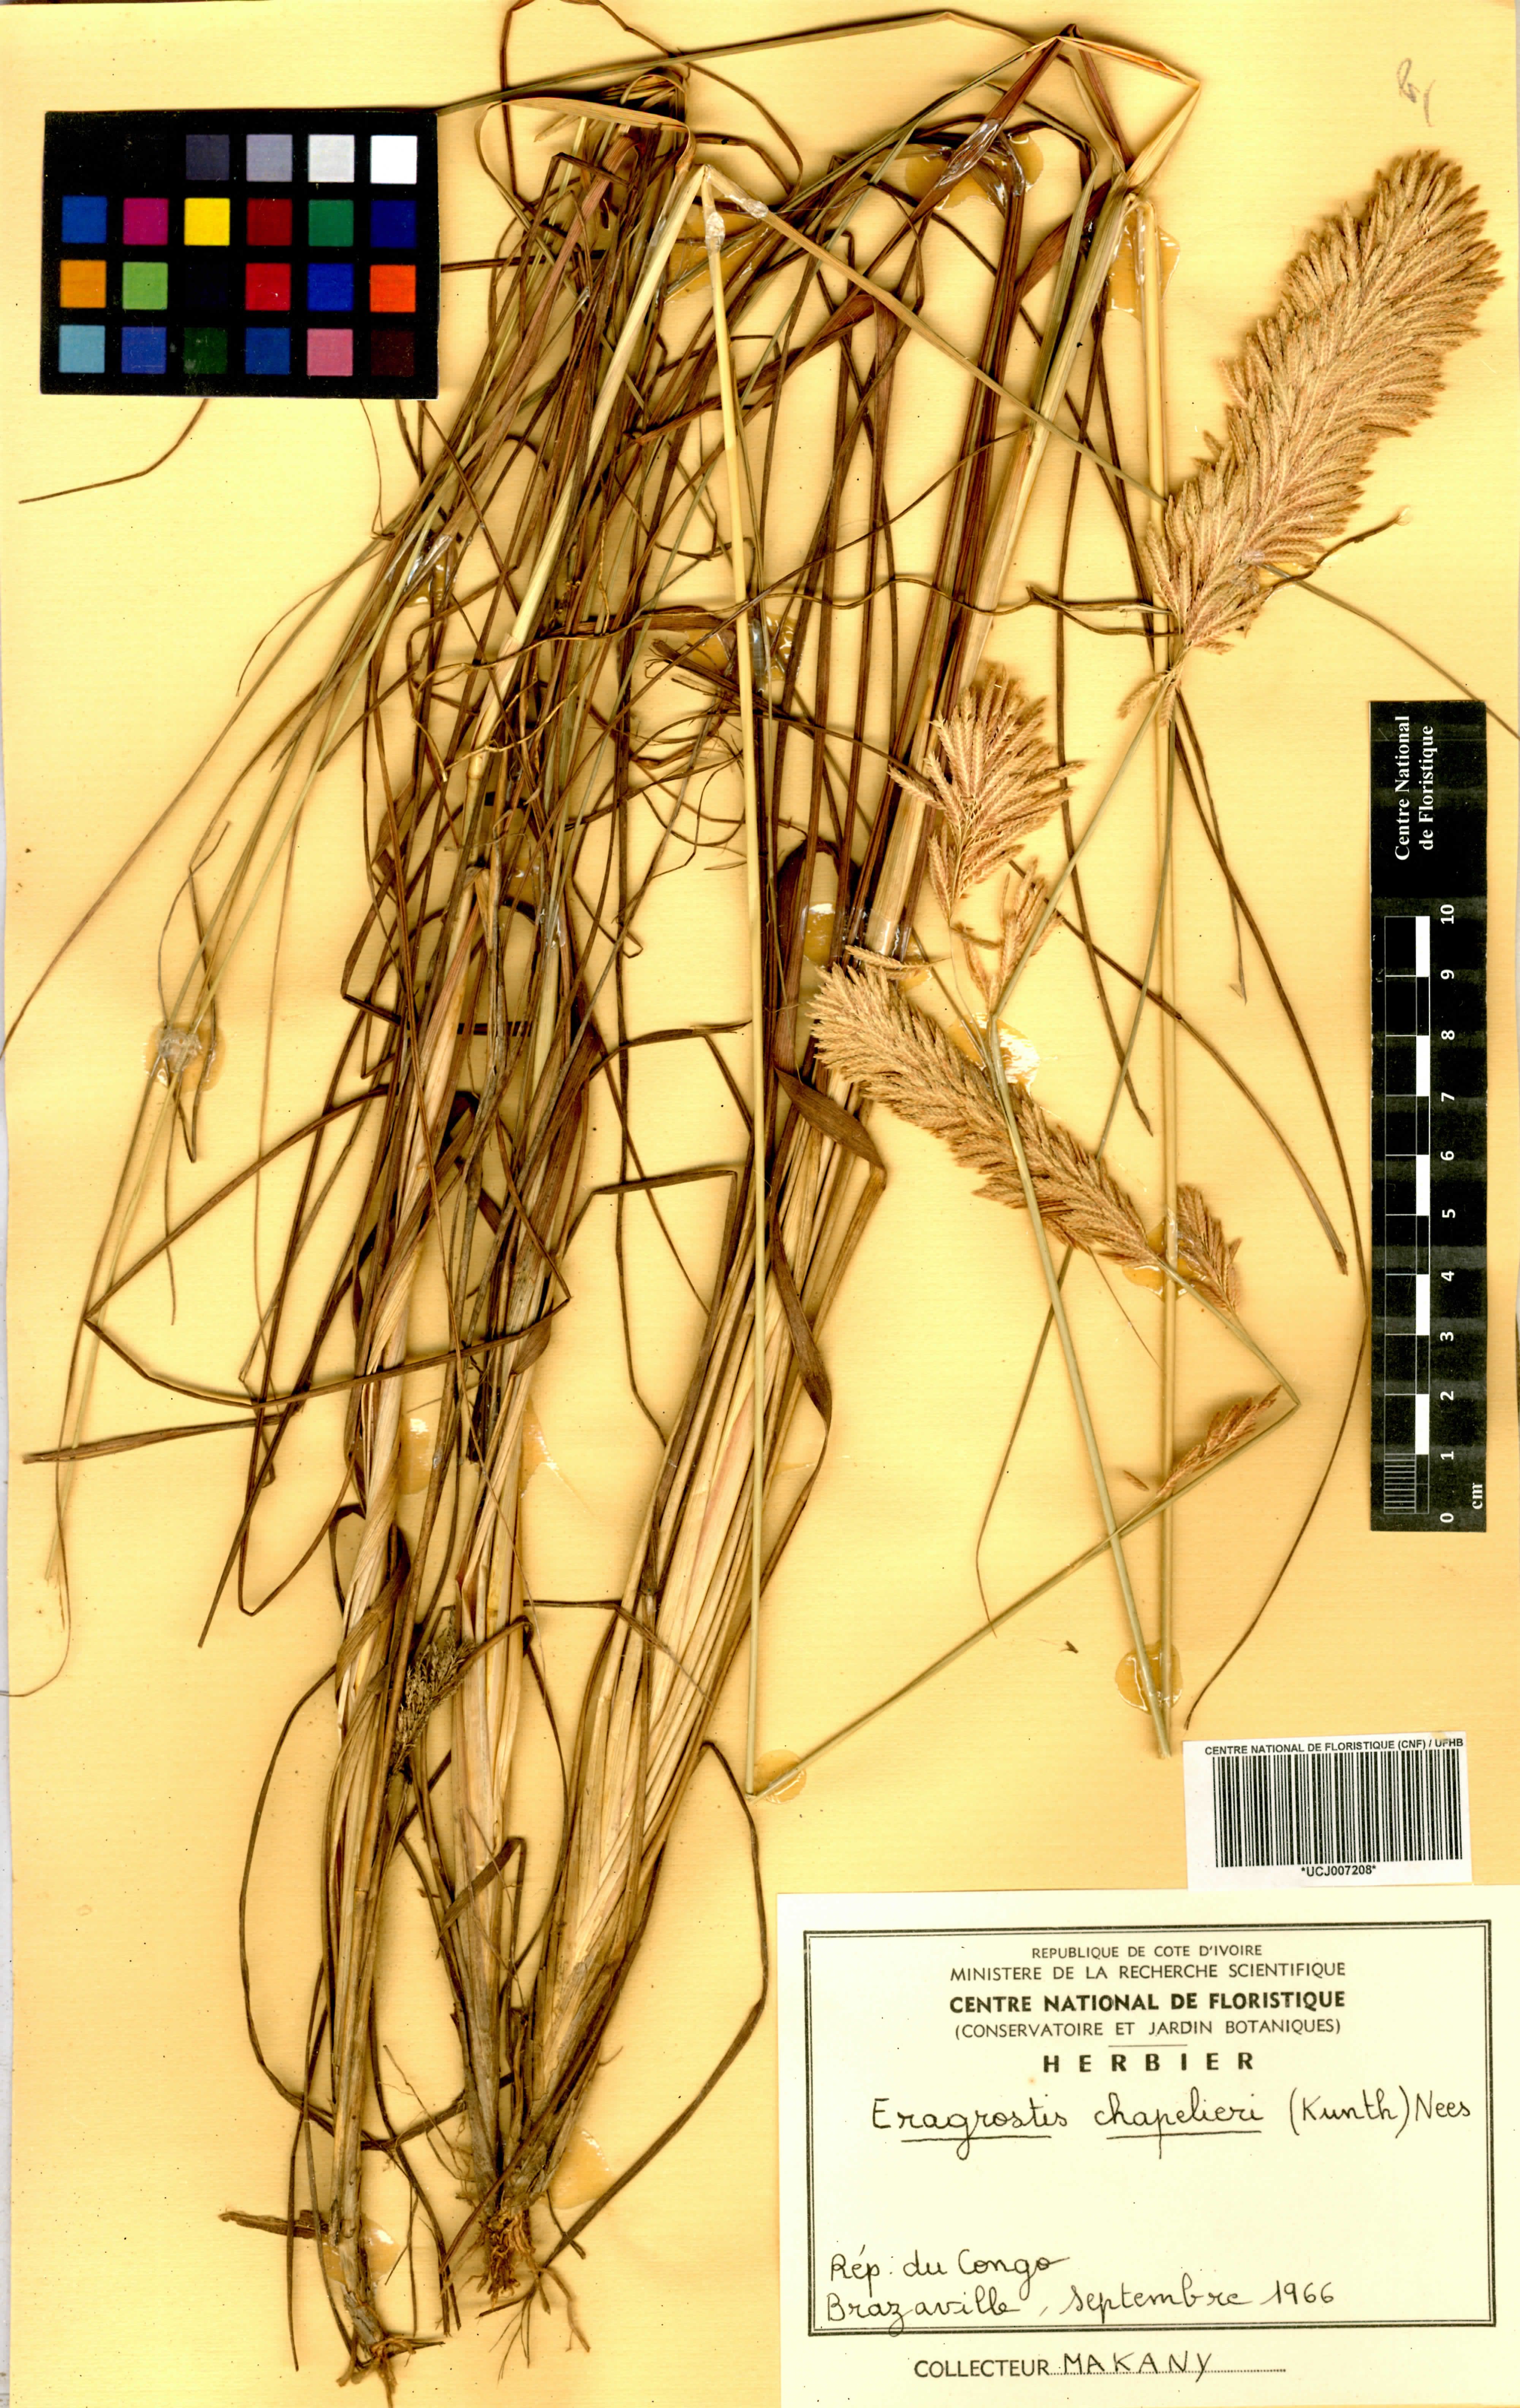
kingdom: Plantae
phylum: Tracheophyta
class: Liliopsida
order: Poales
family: Poaceae
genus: Eragrostis
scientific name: Eragrostis chapelieri
